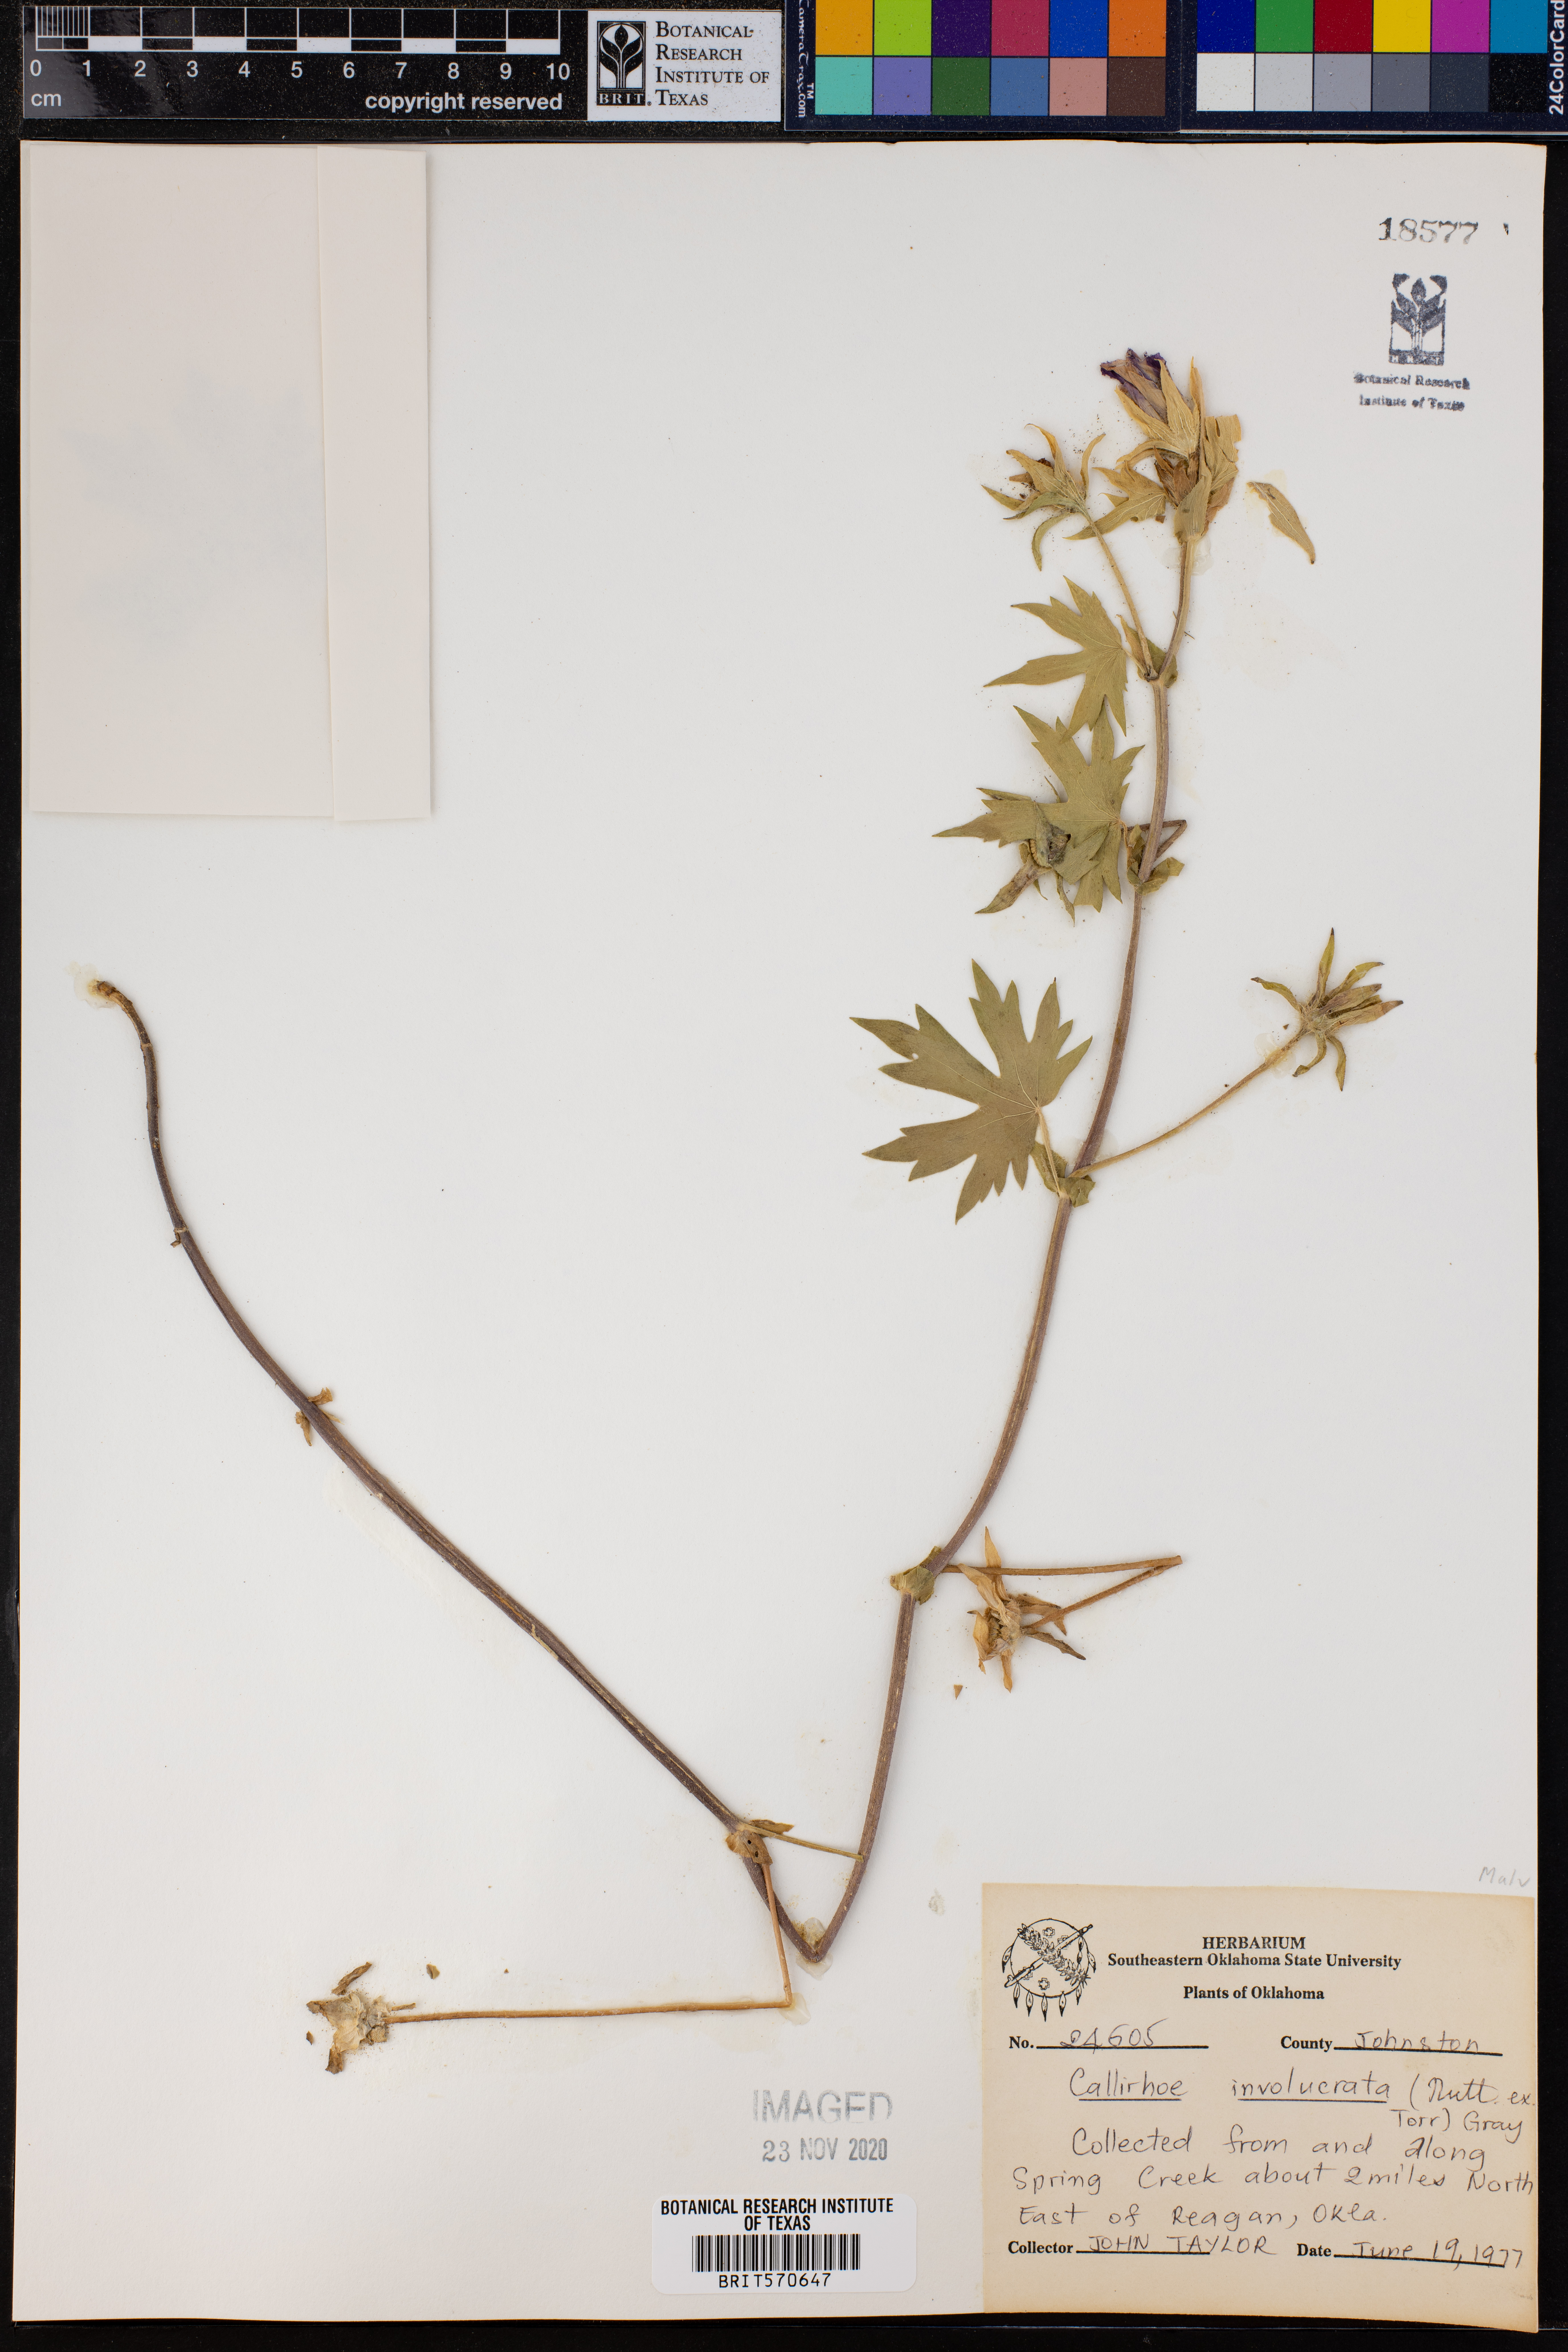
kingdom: Plantae
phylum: Tracheophyta
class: Magnoliopsida
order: Malvales
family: Malvaceae
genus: Callirhoe
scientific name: Callirhoe involucrata
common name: Purple poppy-mallow
